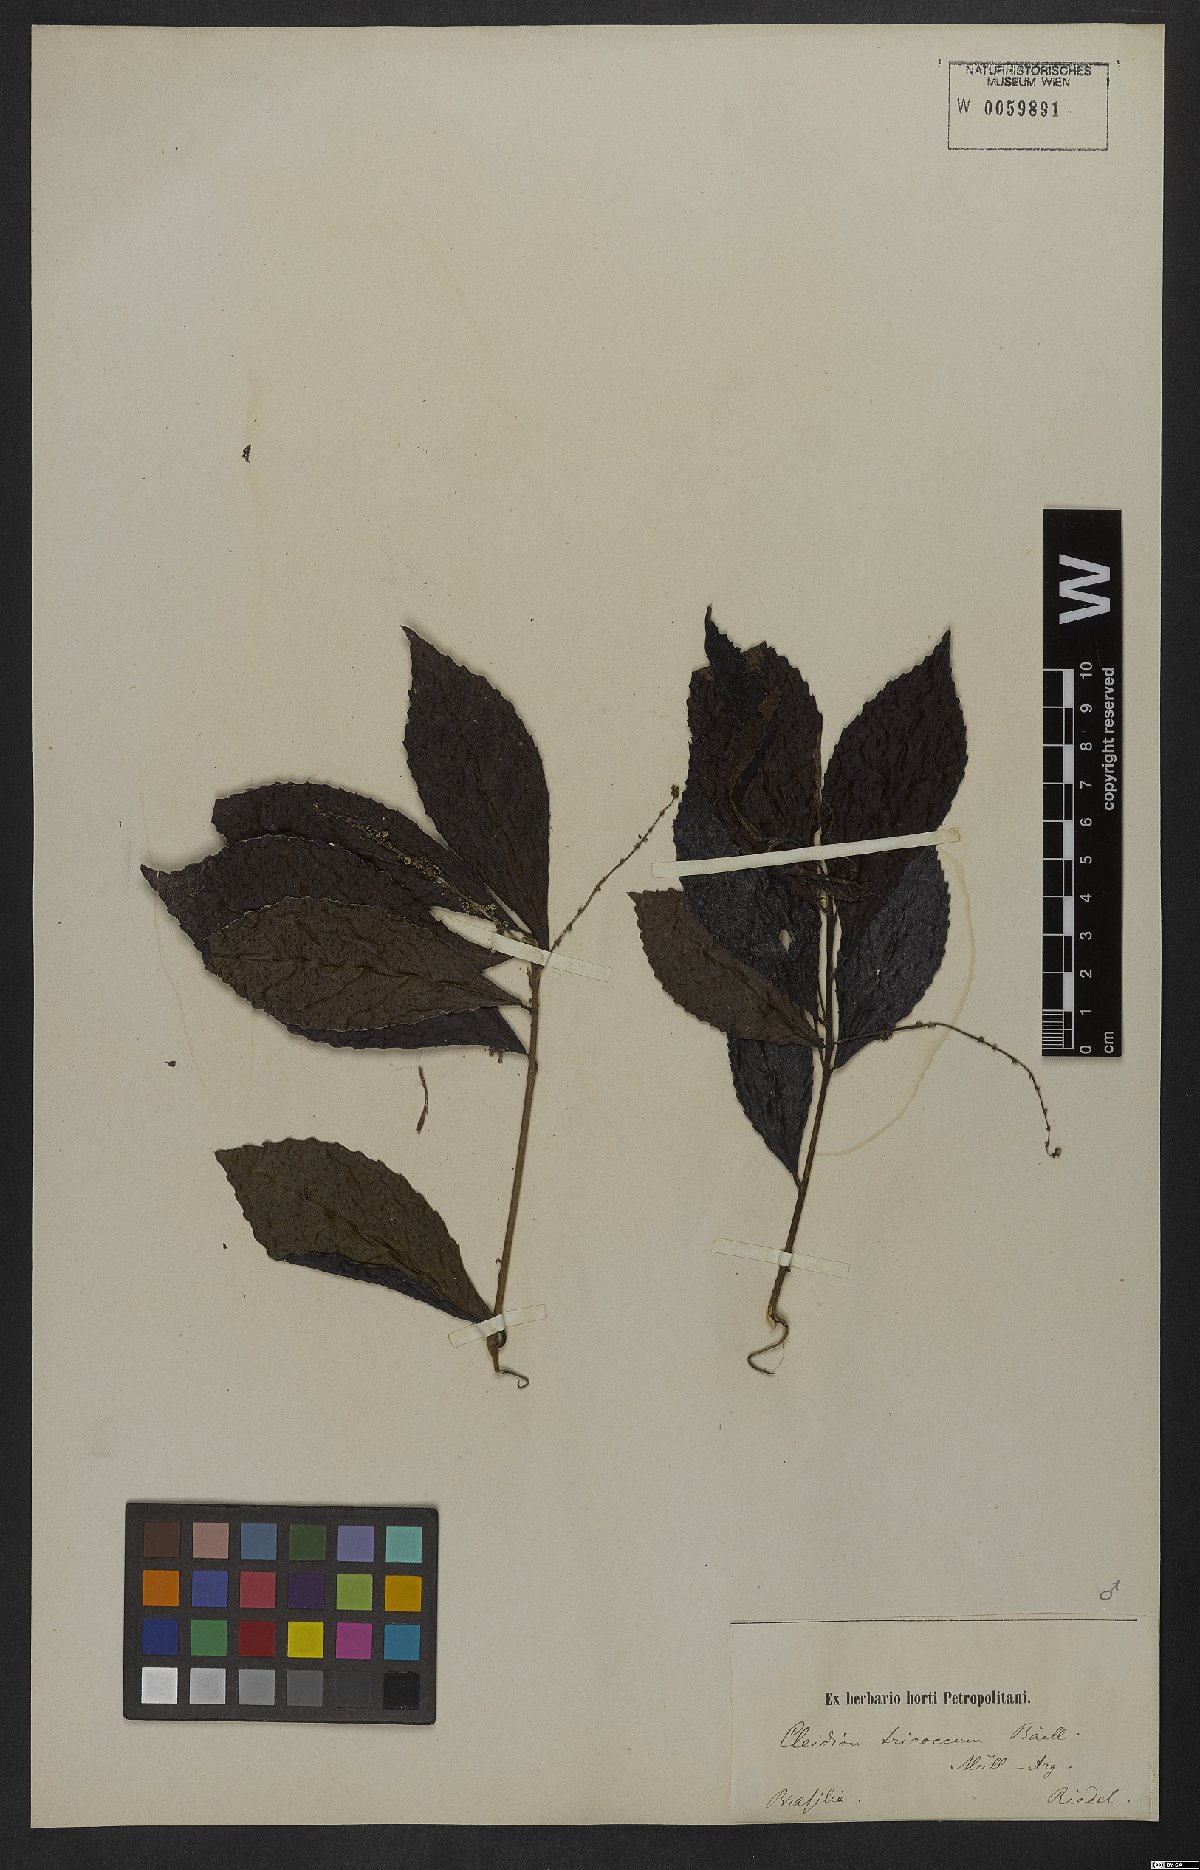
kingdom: Plantae
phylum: Tracheophyta
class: Magnoliopsida
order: Malpighiales
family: Euphorbiaceae
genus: Cleidion
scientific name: Cleidion tricoccum
